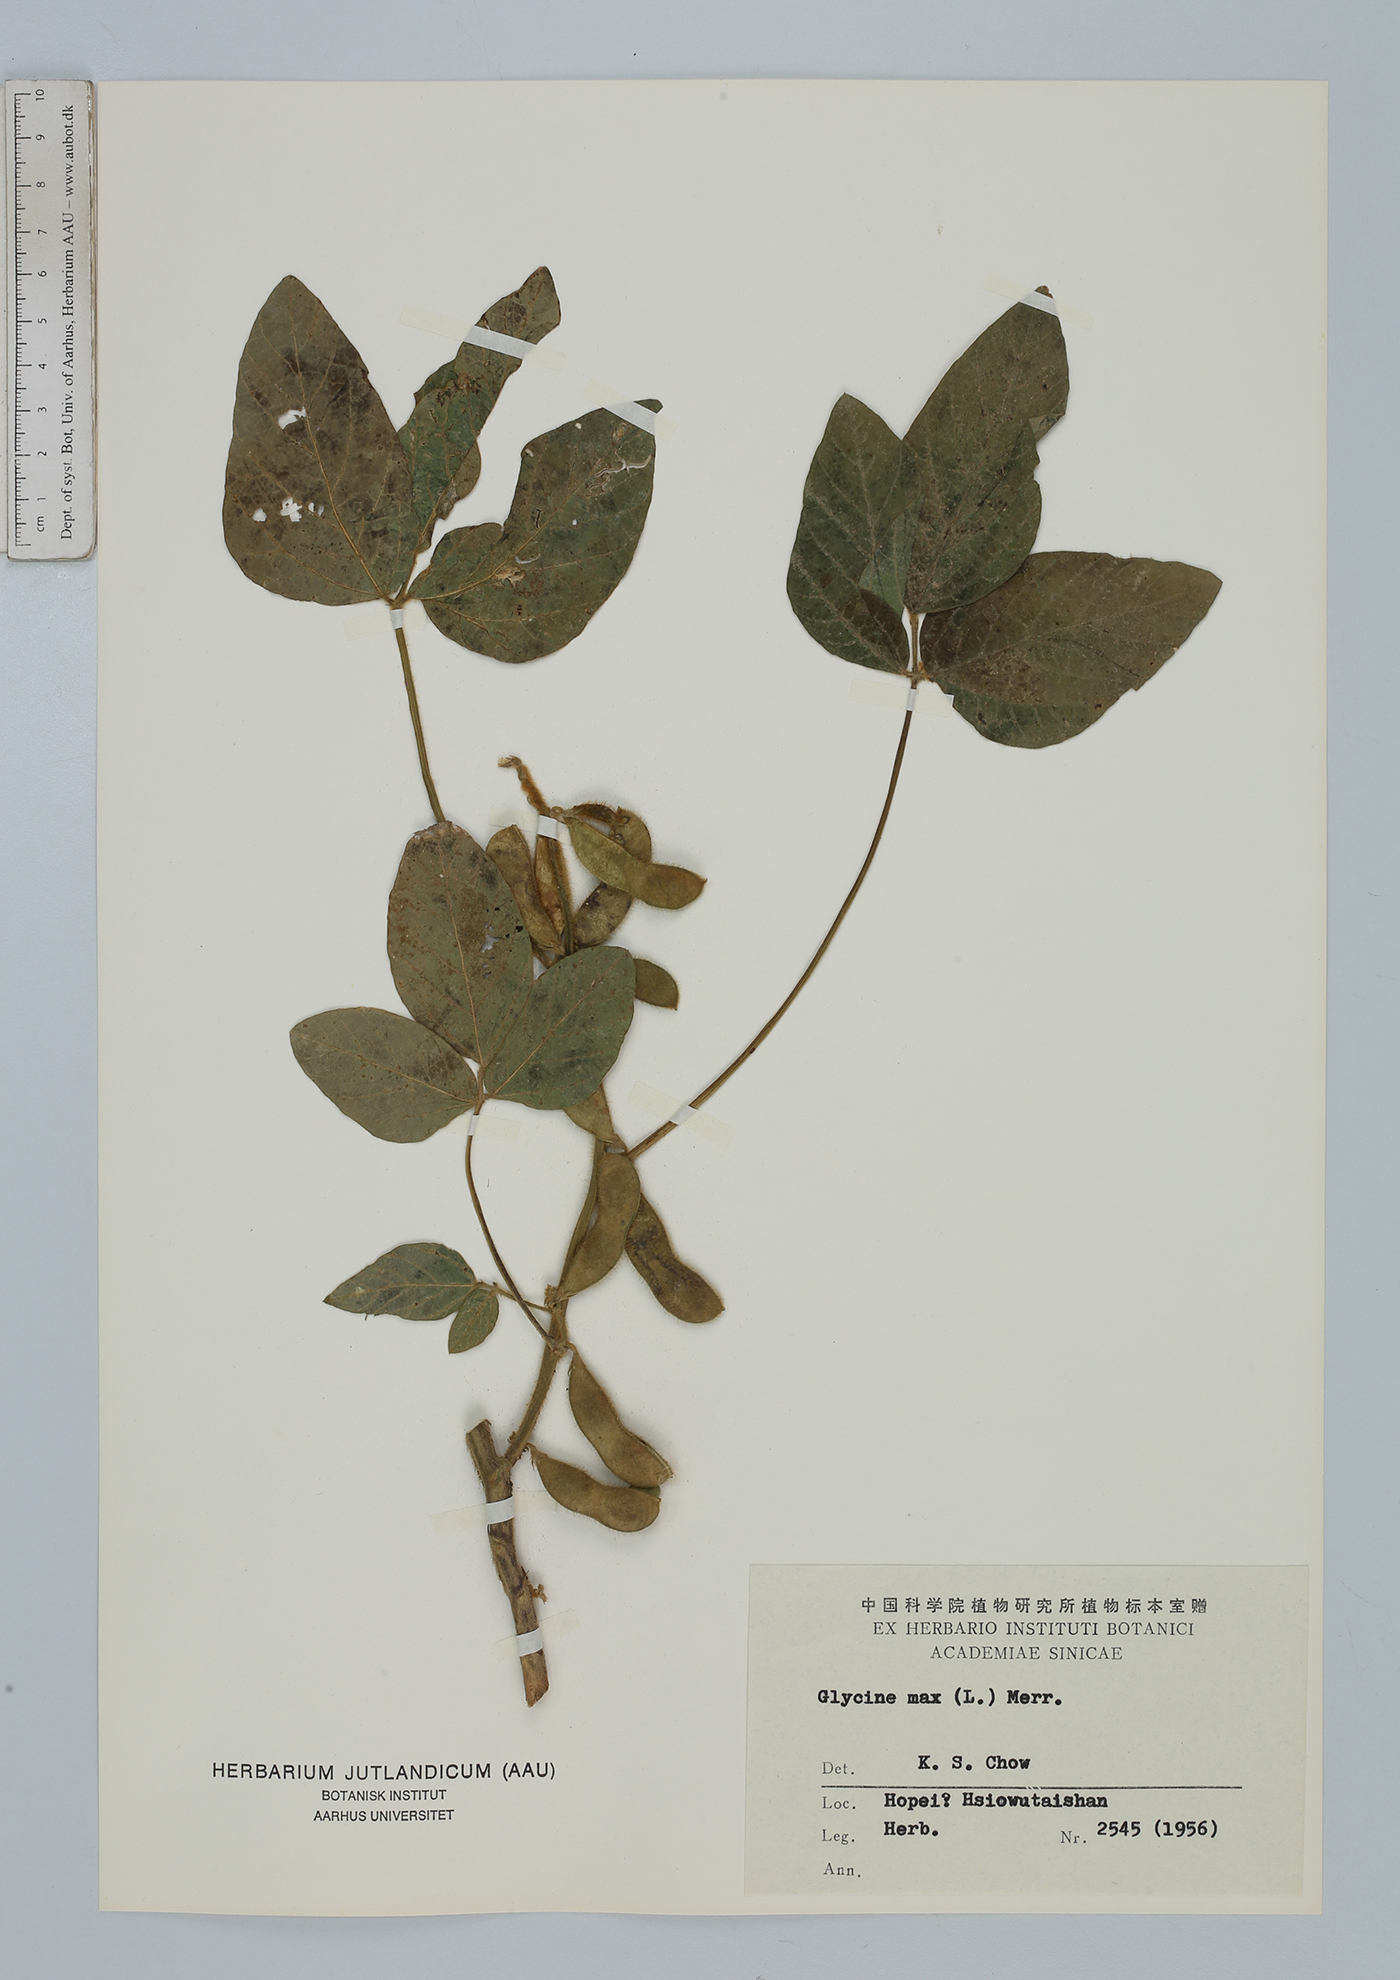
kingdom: Plantae
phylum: Tracheophyta
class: Magnoliopsida
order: Fabales
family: Fabaceae
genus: Glycine
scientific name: Glycine max
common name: Soya-bean
